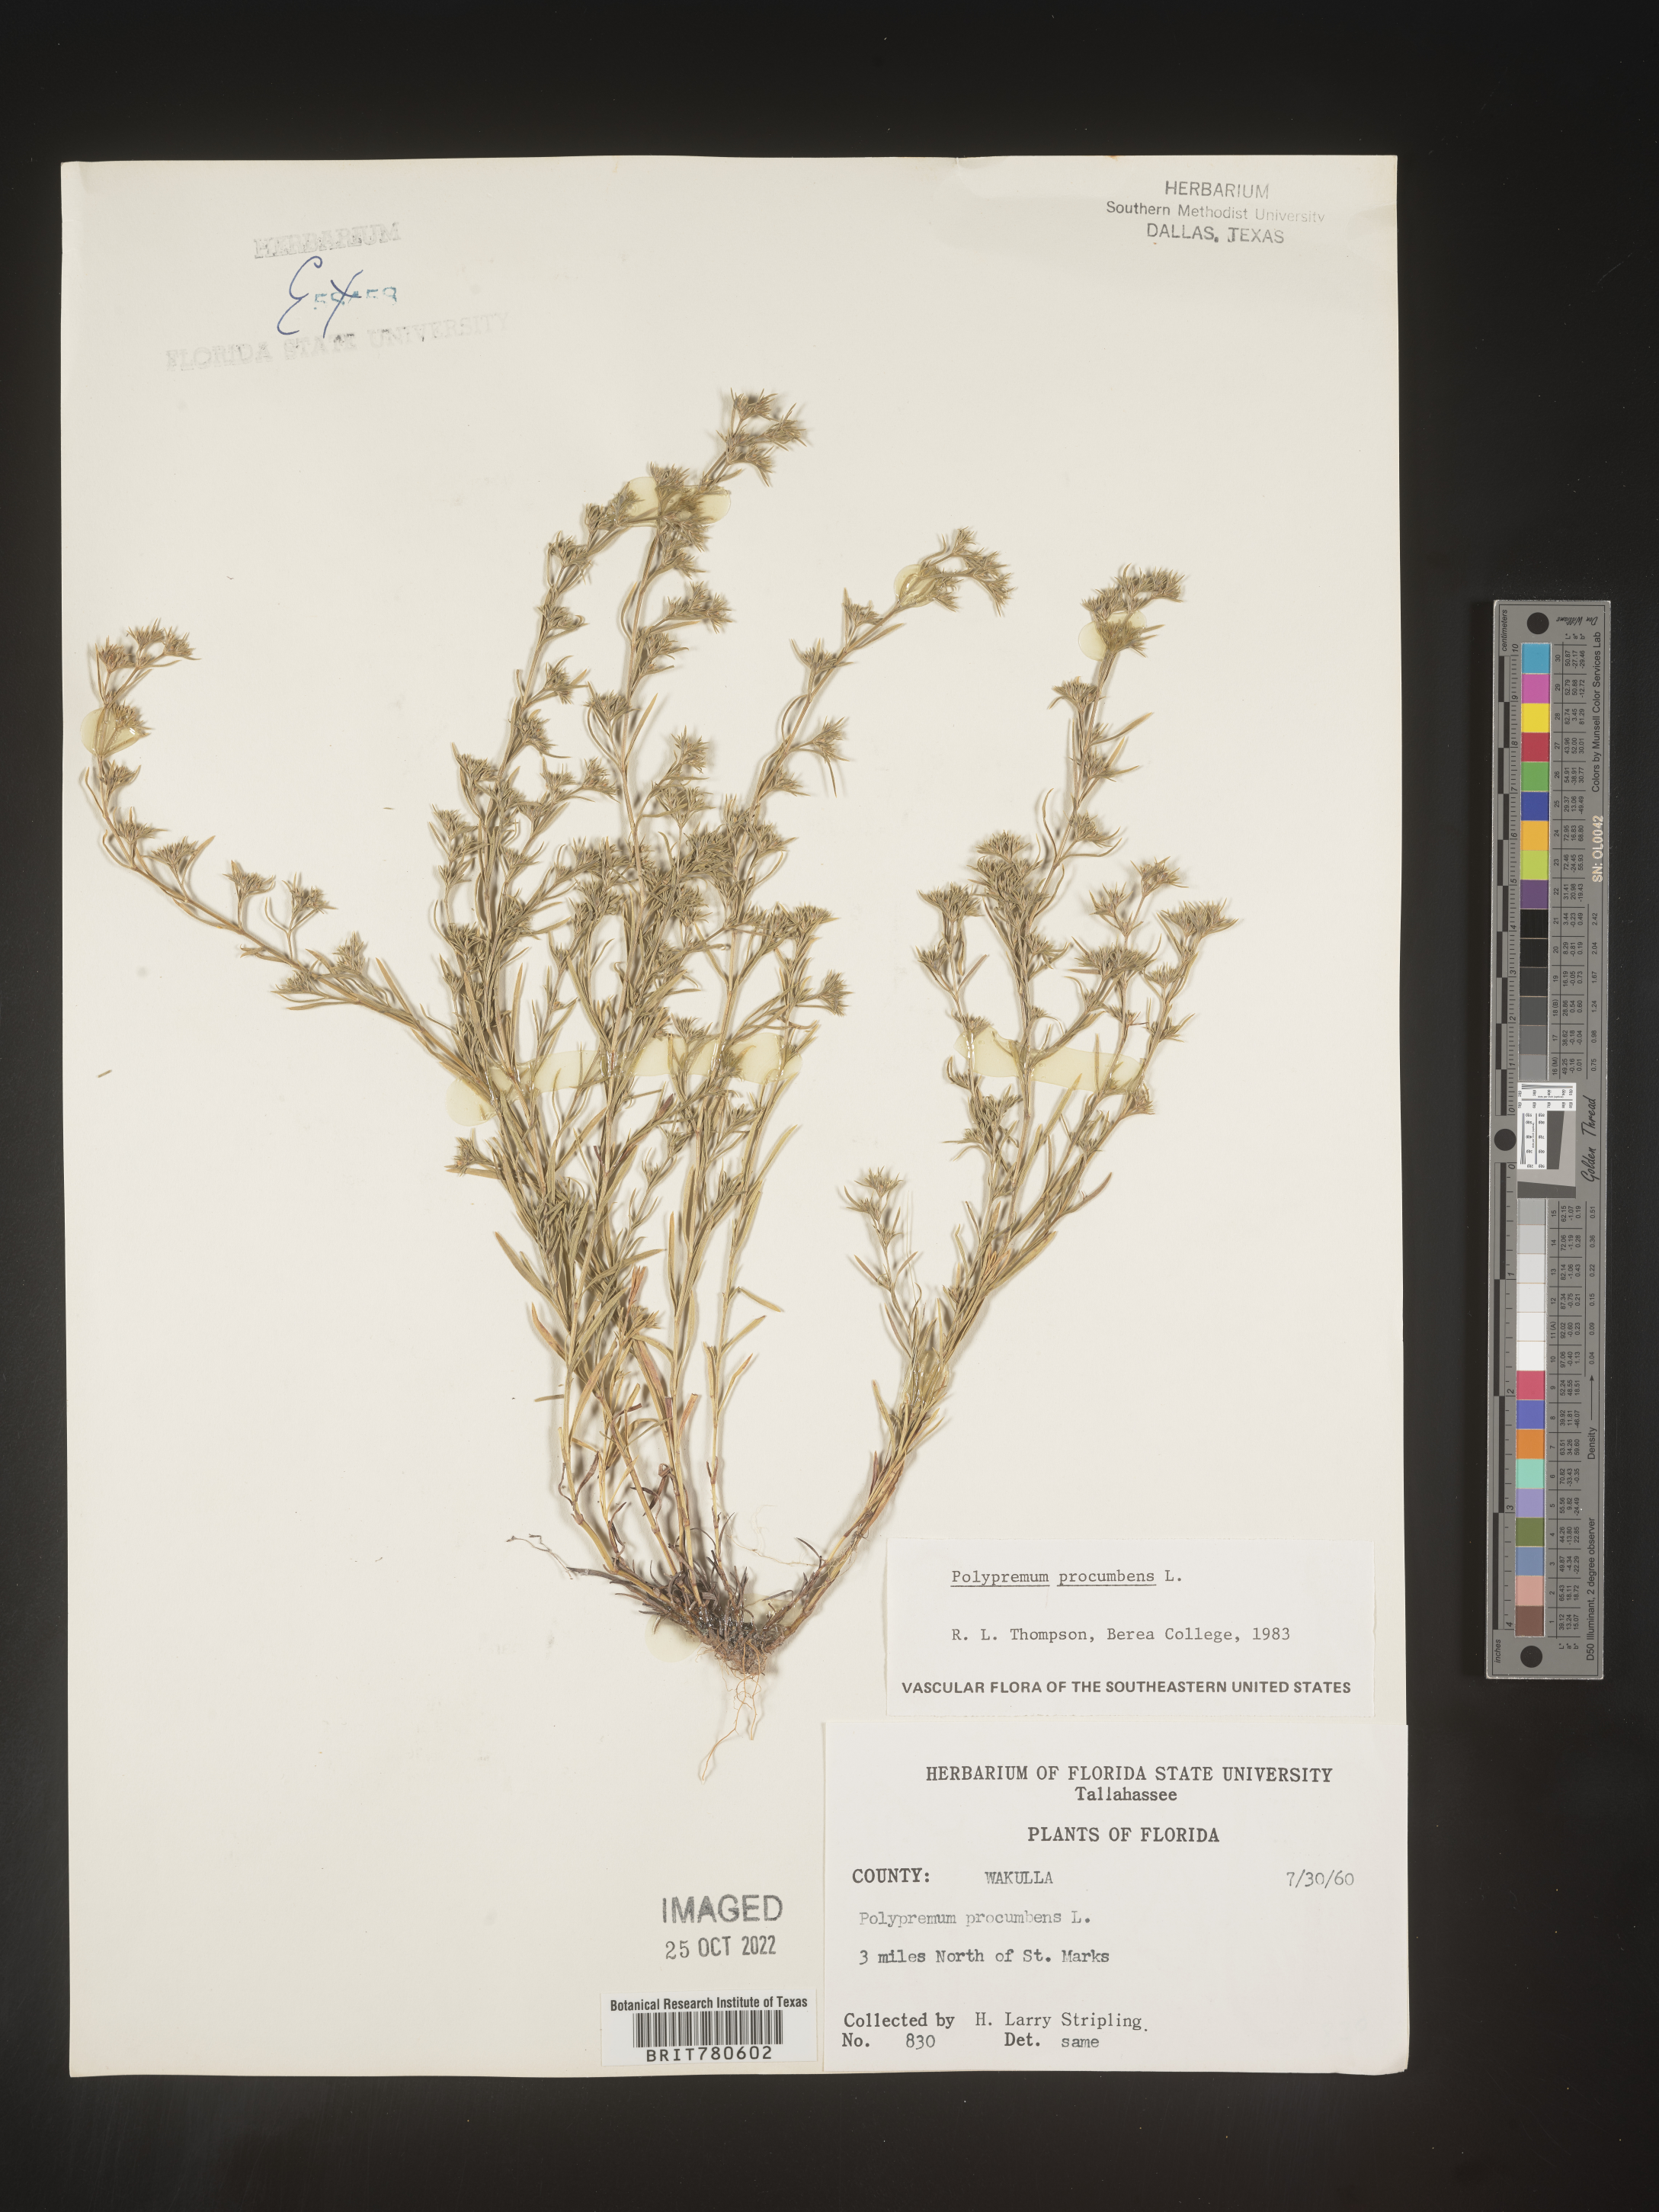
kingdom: Plantae
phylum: Tracheophyta
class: Magnoliopsida
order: Lamiales
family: Tetrachondraceae
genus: Polypremum
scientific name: Polypremum procumbens
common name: Juniper-leaf
